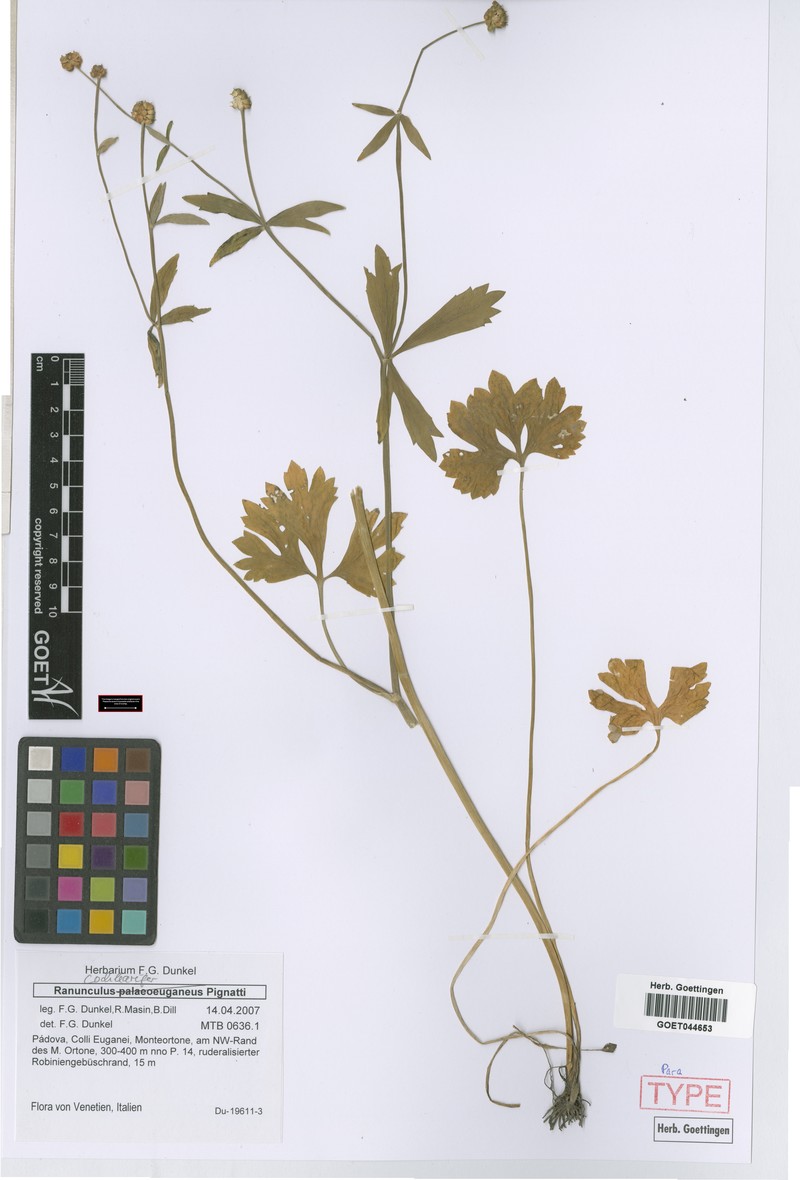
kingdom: Plantae
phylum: Tracheophyta
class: Magnoliopsida
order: Ranunculales
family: Ranunculaceae
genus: Ranunculus
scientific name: Ranunculus cochlearifer
